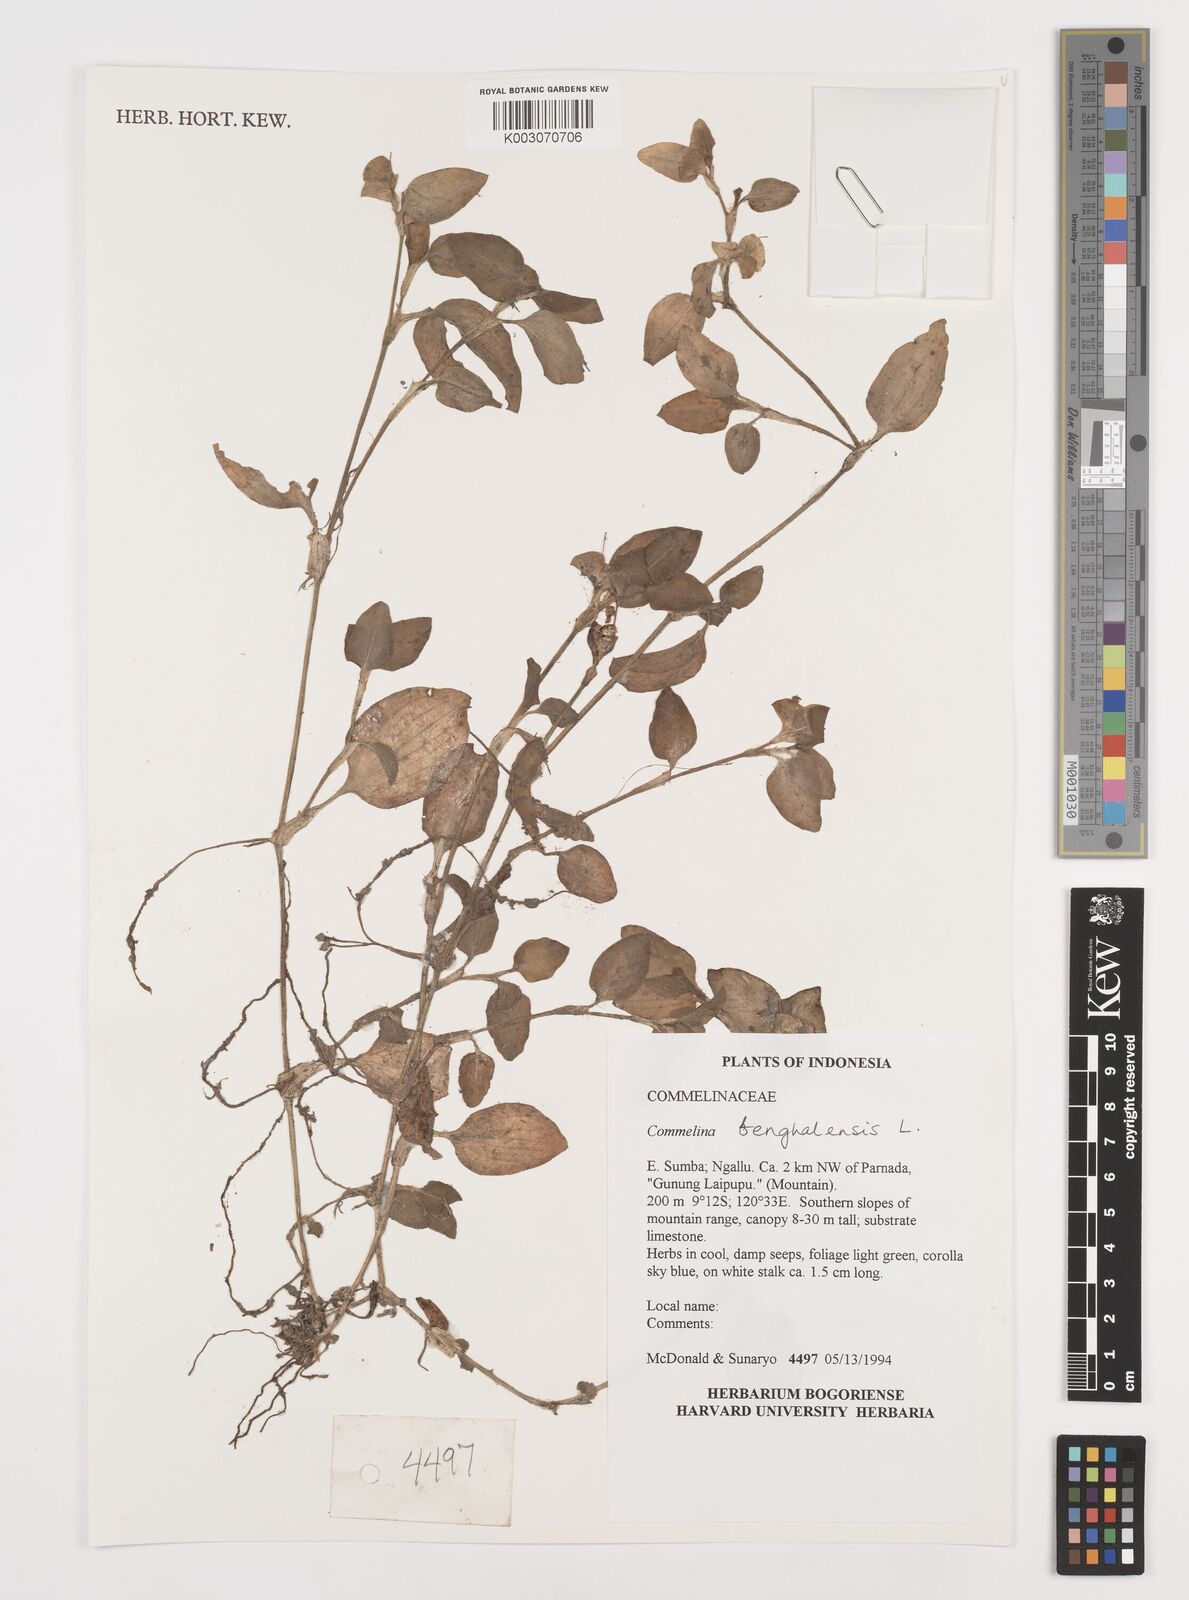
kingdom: Plantae
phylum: Tracheophyta
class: Liliopsida
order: Commelinales
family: Commelinaceae
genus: Commelina
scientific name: Commelina benghalensis
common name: Jio
